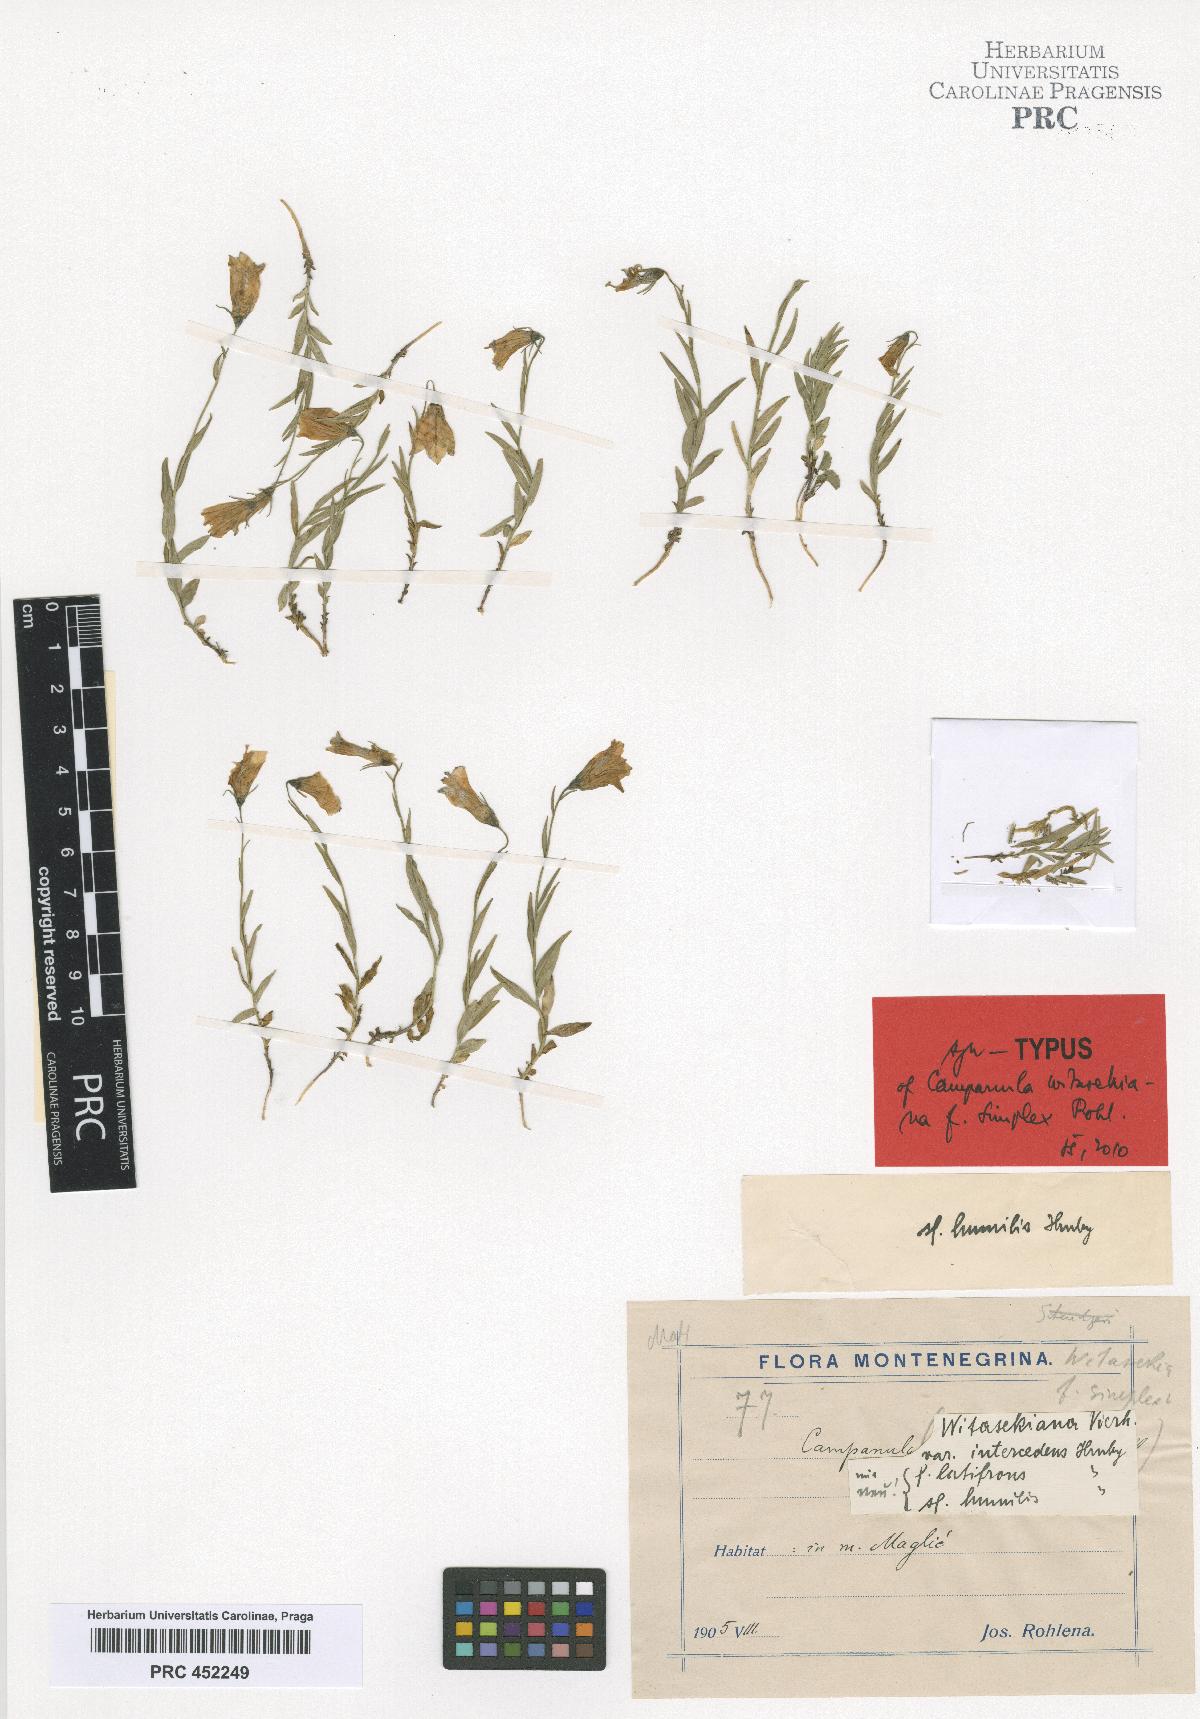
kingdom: Plantae
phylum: Tracheophyta
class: Magnoliopsida
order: Asterales
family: Campanulaceae
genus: Campanula
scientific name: Campanula witasekiana
